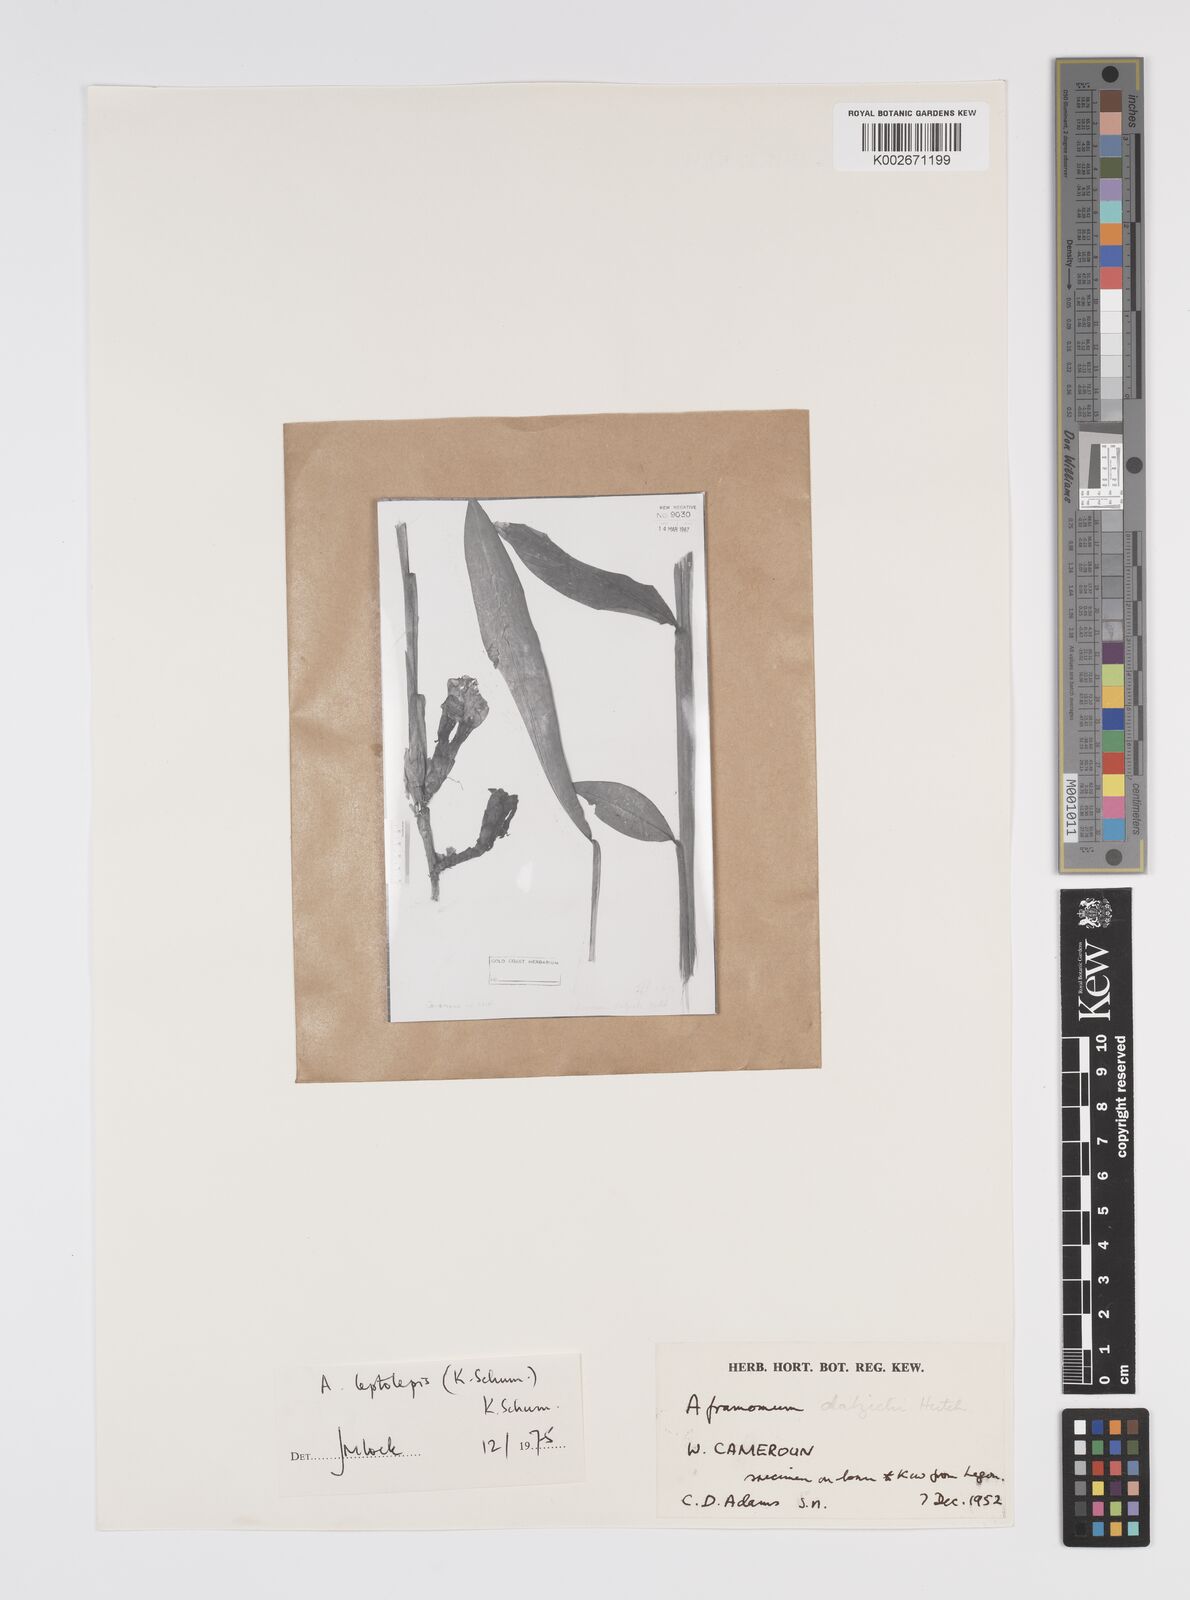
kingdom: Plantae
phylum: Tracheophyta
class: Liliopsida
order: Zingiberales
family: Zingiberaceae
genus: Aframomum
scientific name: Aframomum leptolepis
